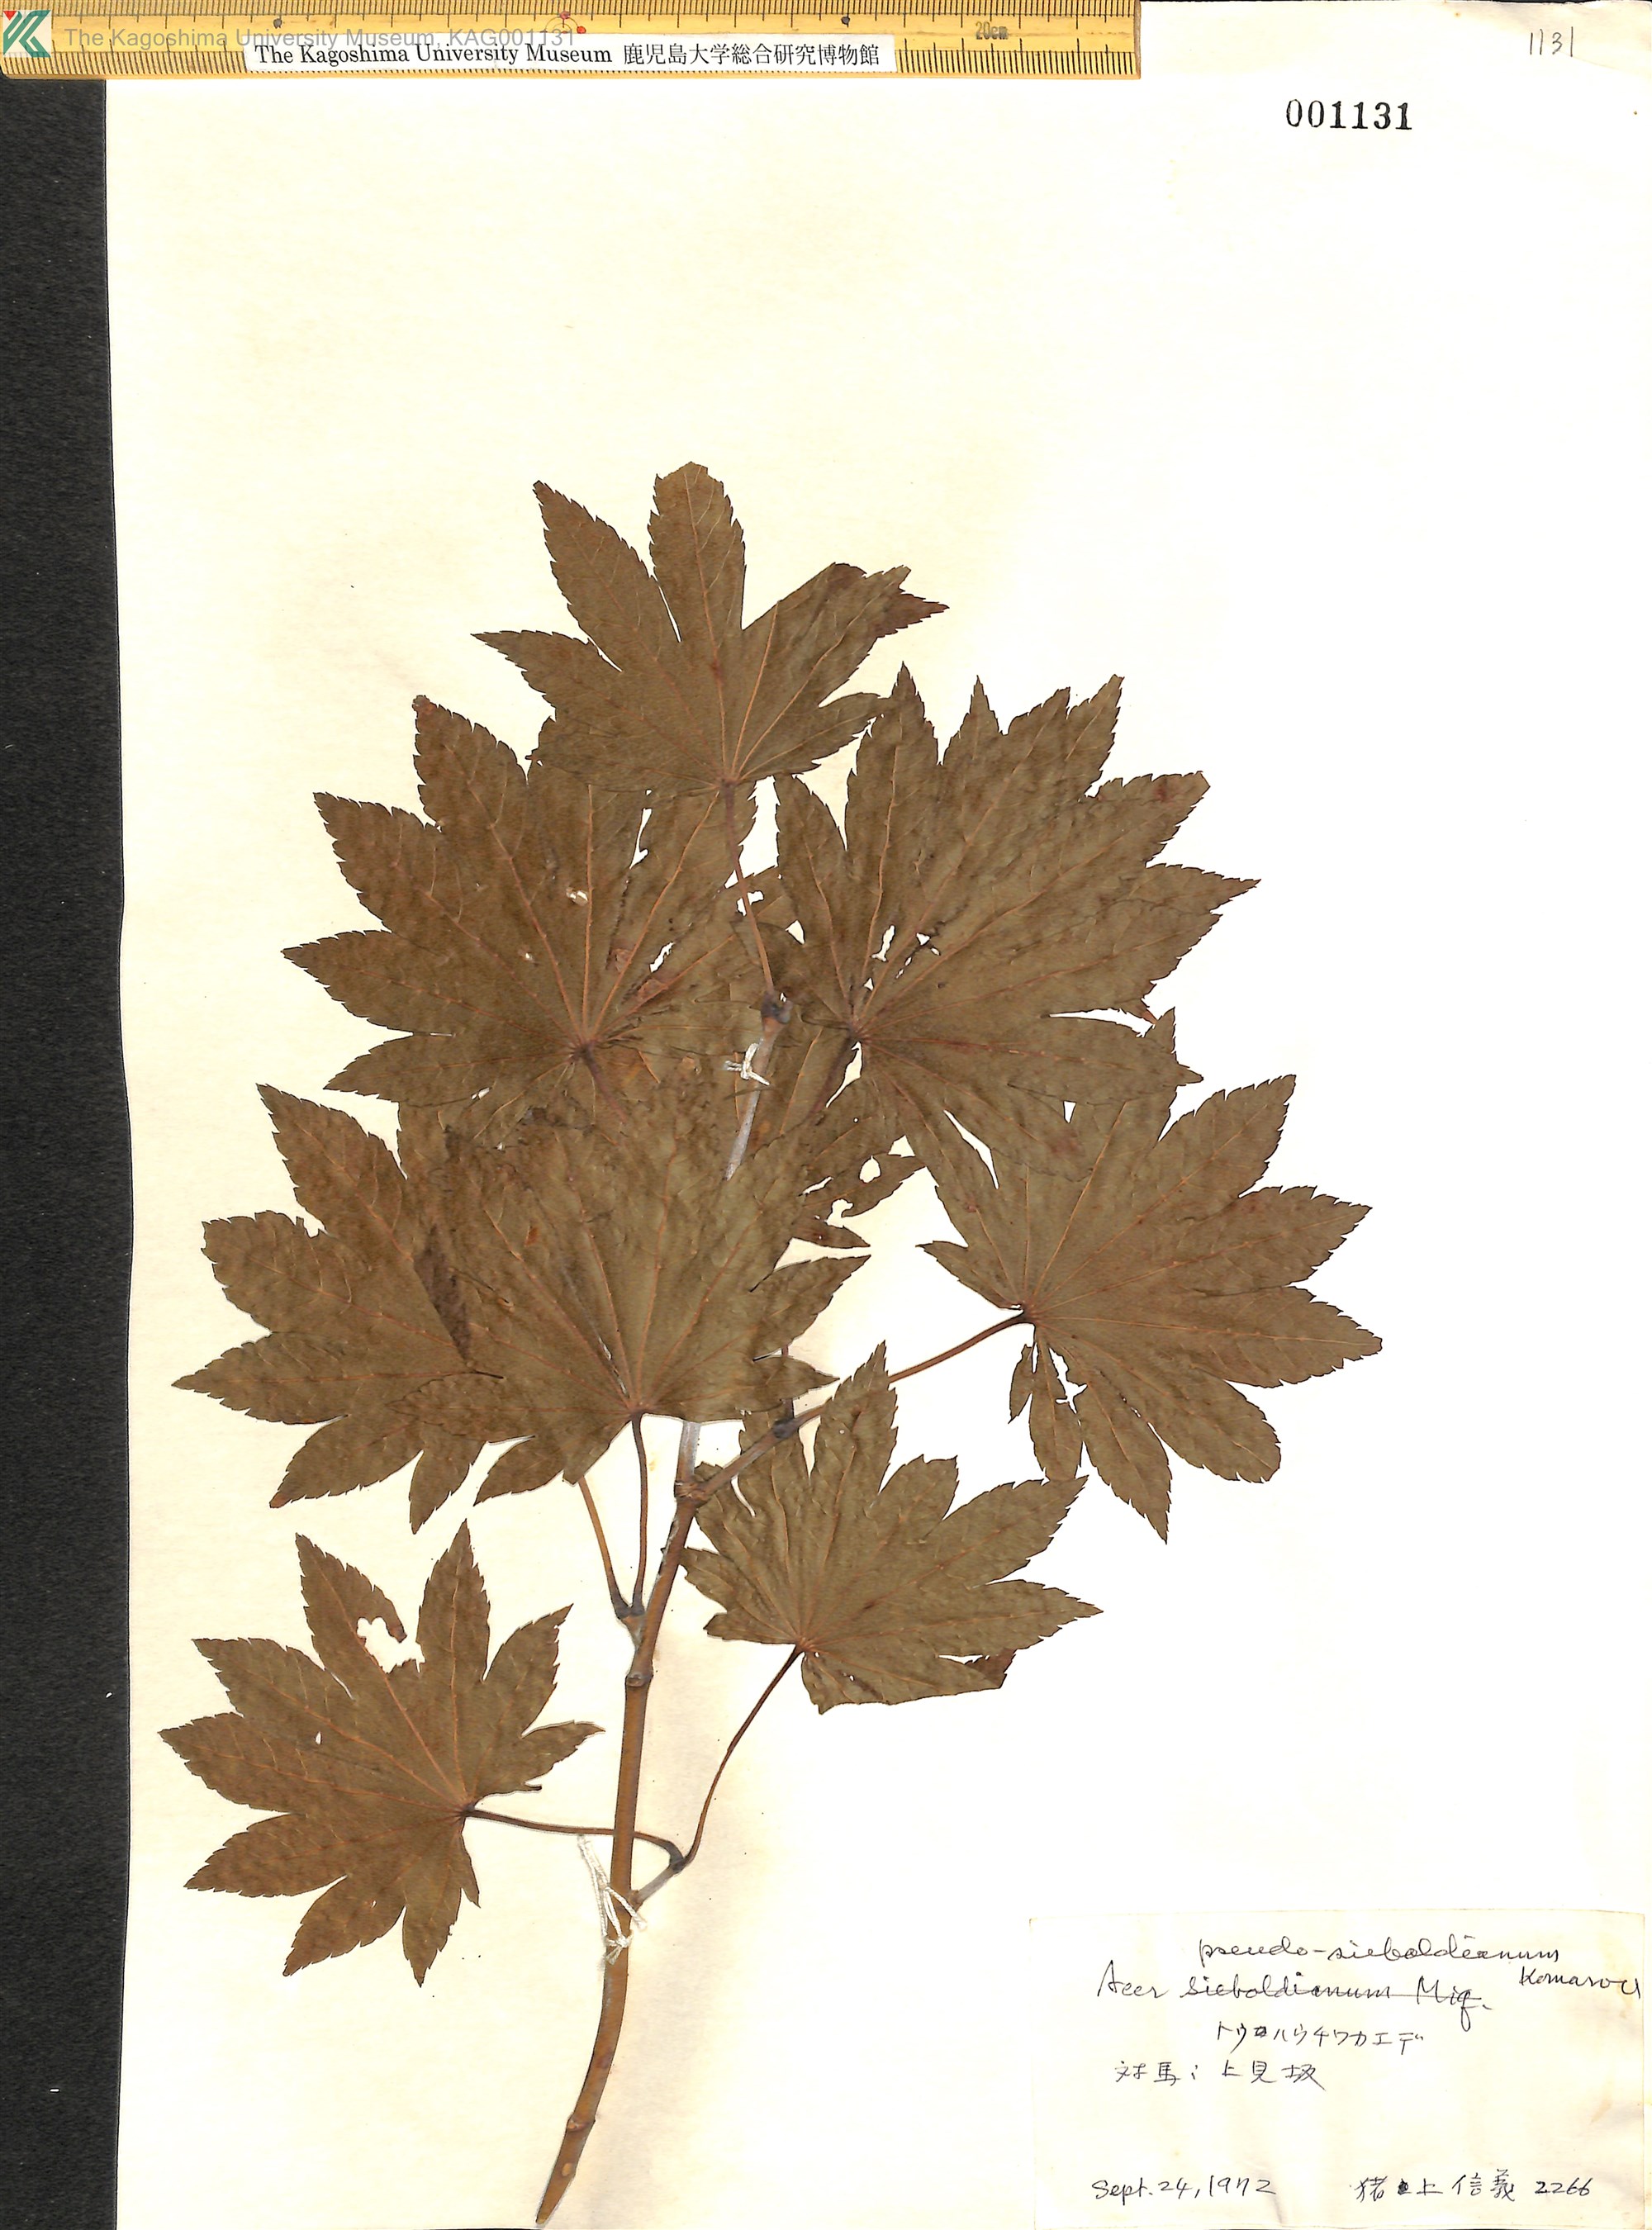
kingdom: Plantae
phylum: Tracheophyta
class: Magnoliopsida
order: Sapindales
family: Sapindaceae
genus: Acer
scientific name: Acer pseudosieboldianum
